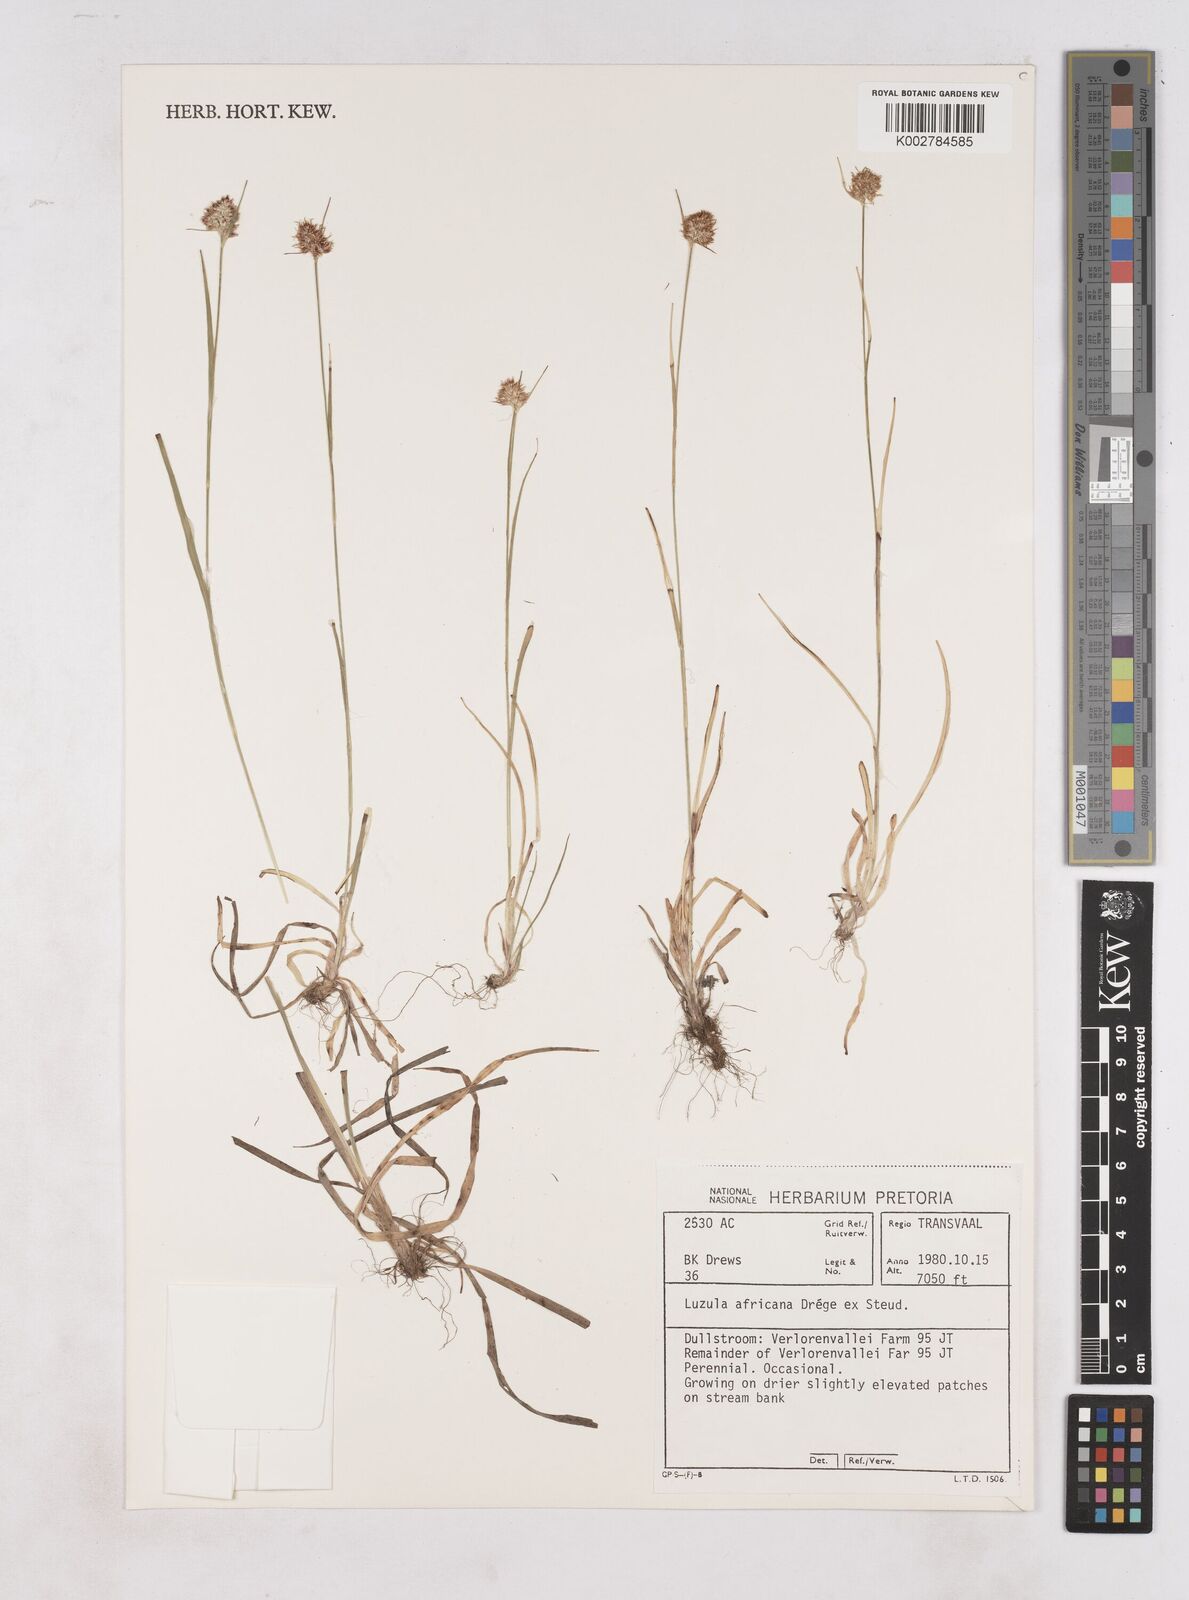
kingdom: Plantae
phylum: Tracheophyta
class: Liliopsida
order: Poales
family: Juncaceae
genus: Luzula
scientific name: Luzula africana
